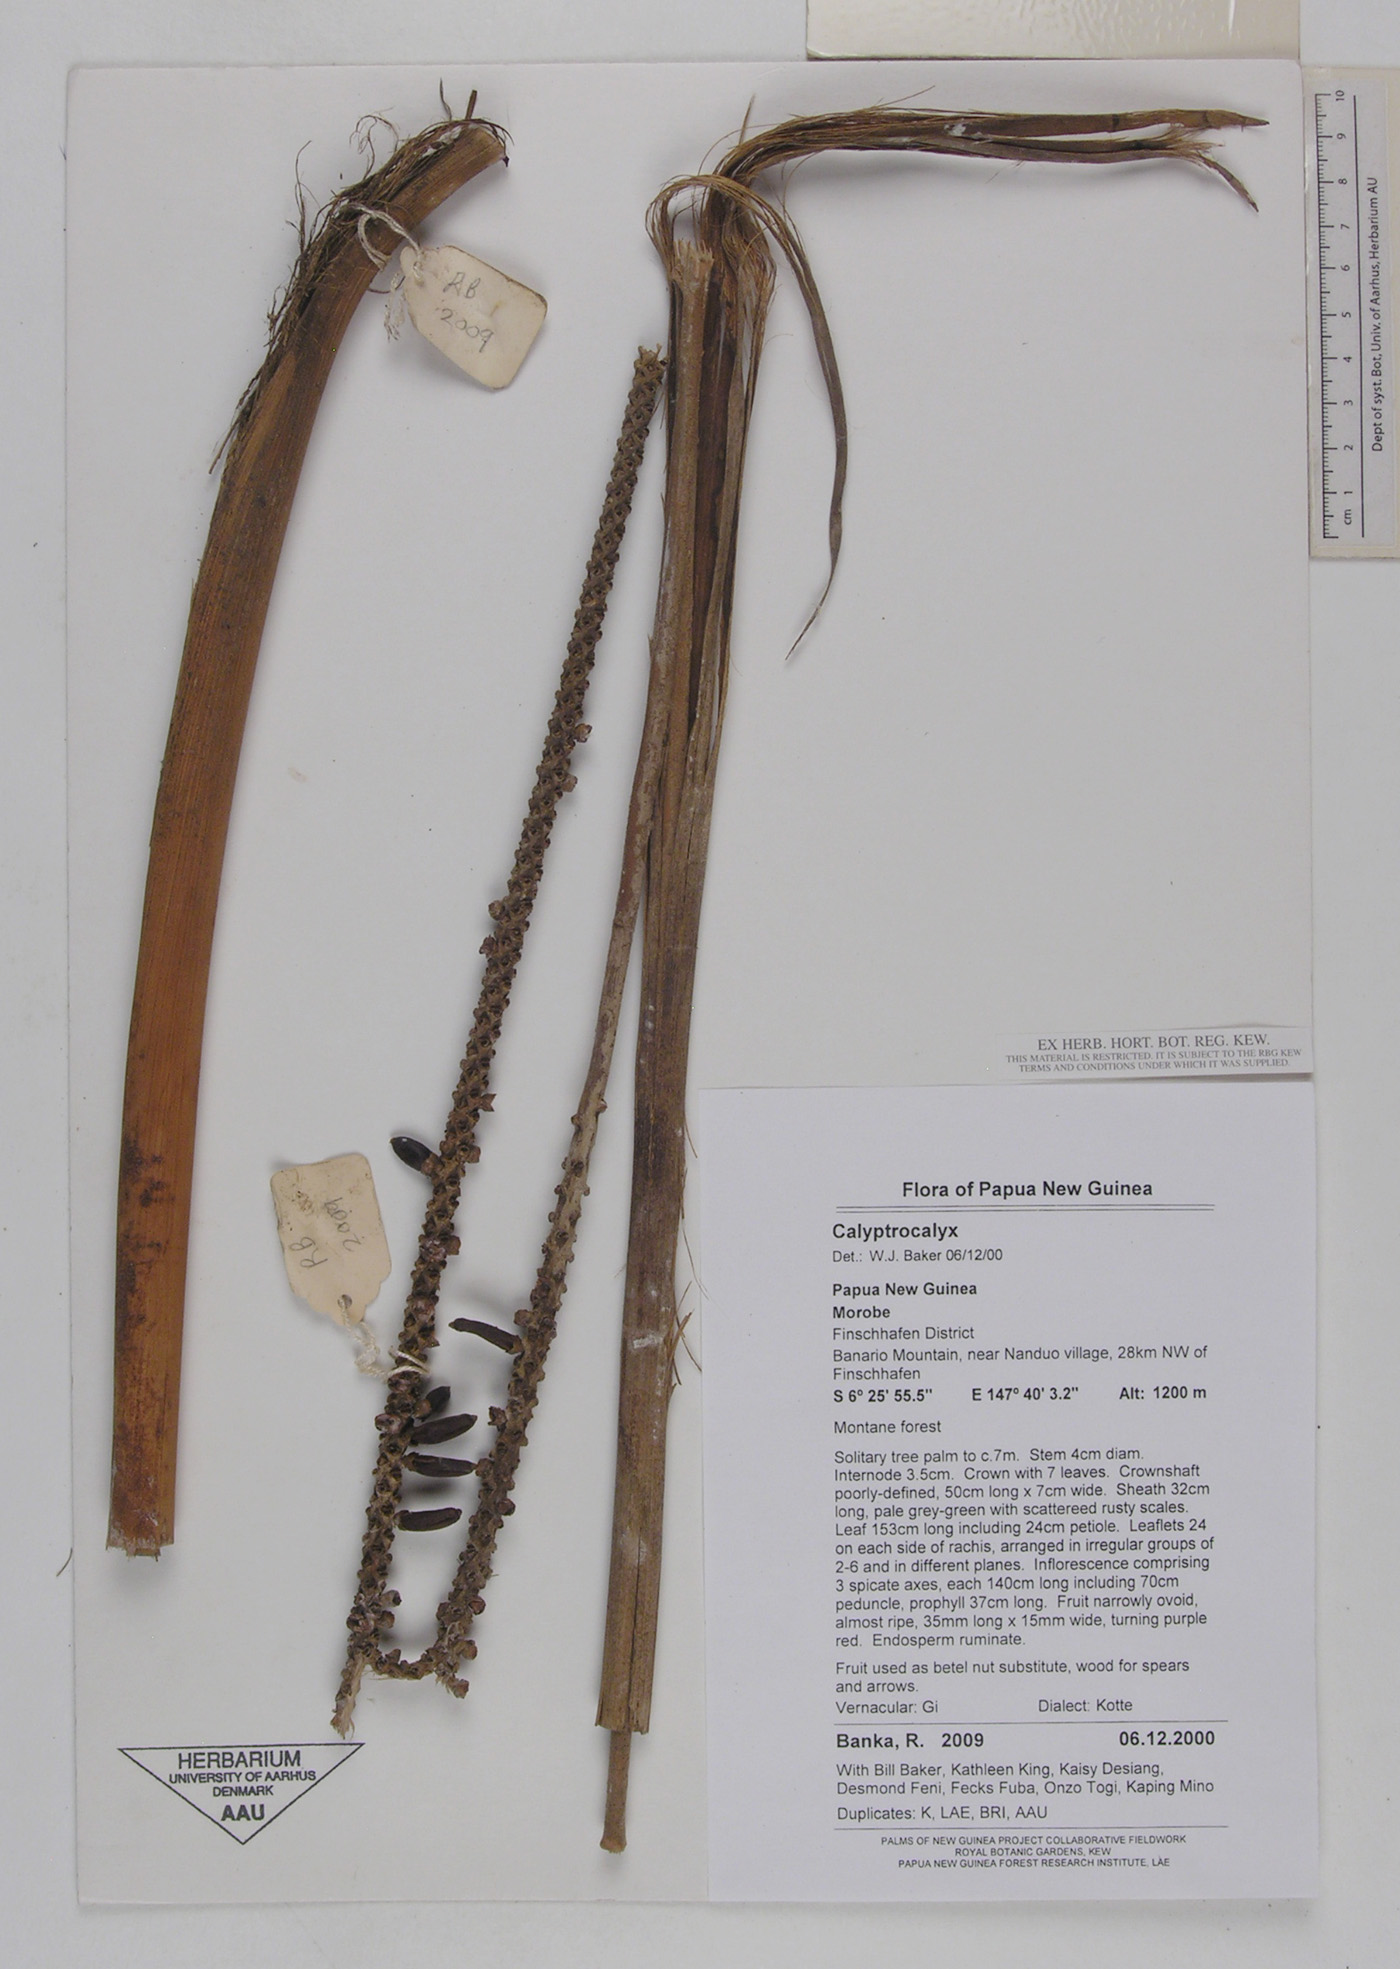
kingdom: Plantae
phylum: Tracheophyta
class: Liliopsida
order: Arecales
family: Arecaceae
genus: Calyptrocalyx
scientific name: Calyptrocalyx
